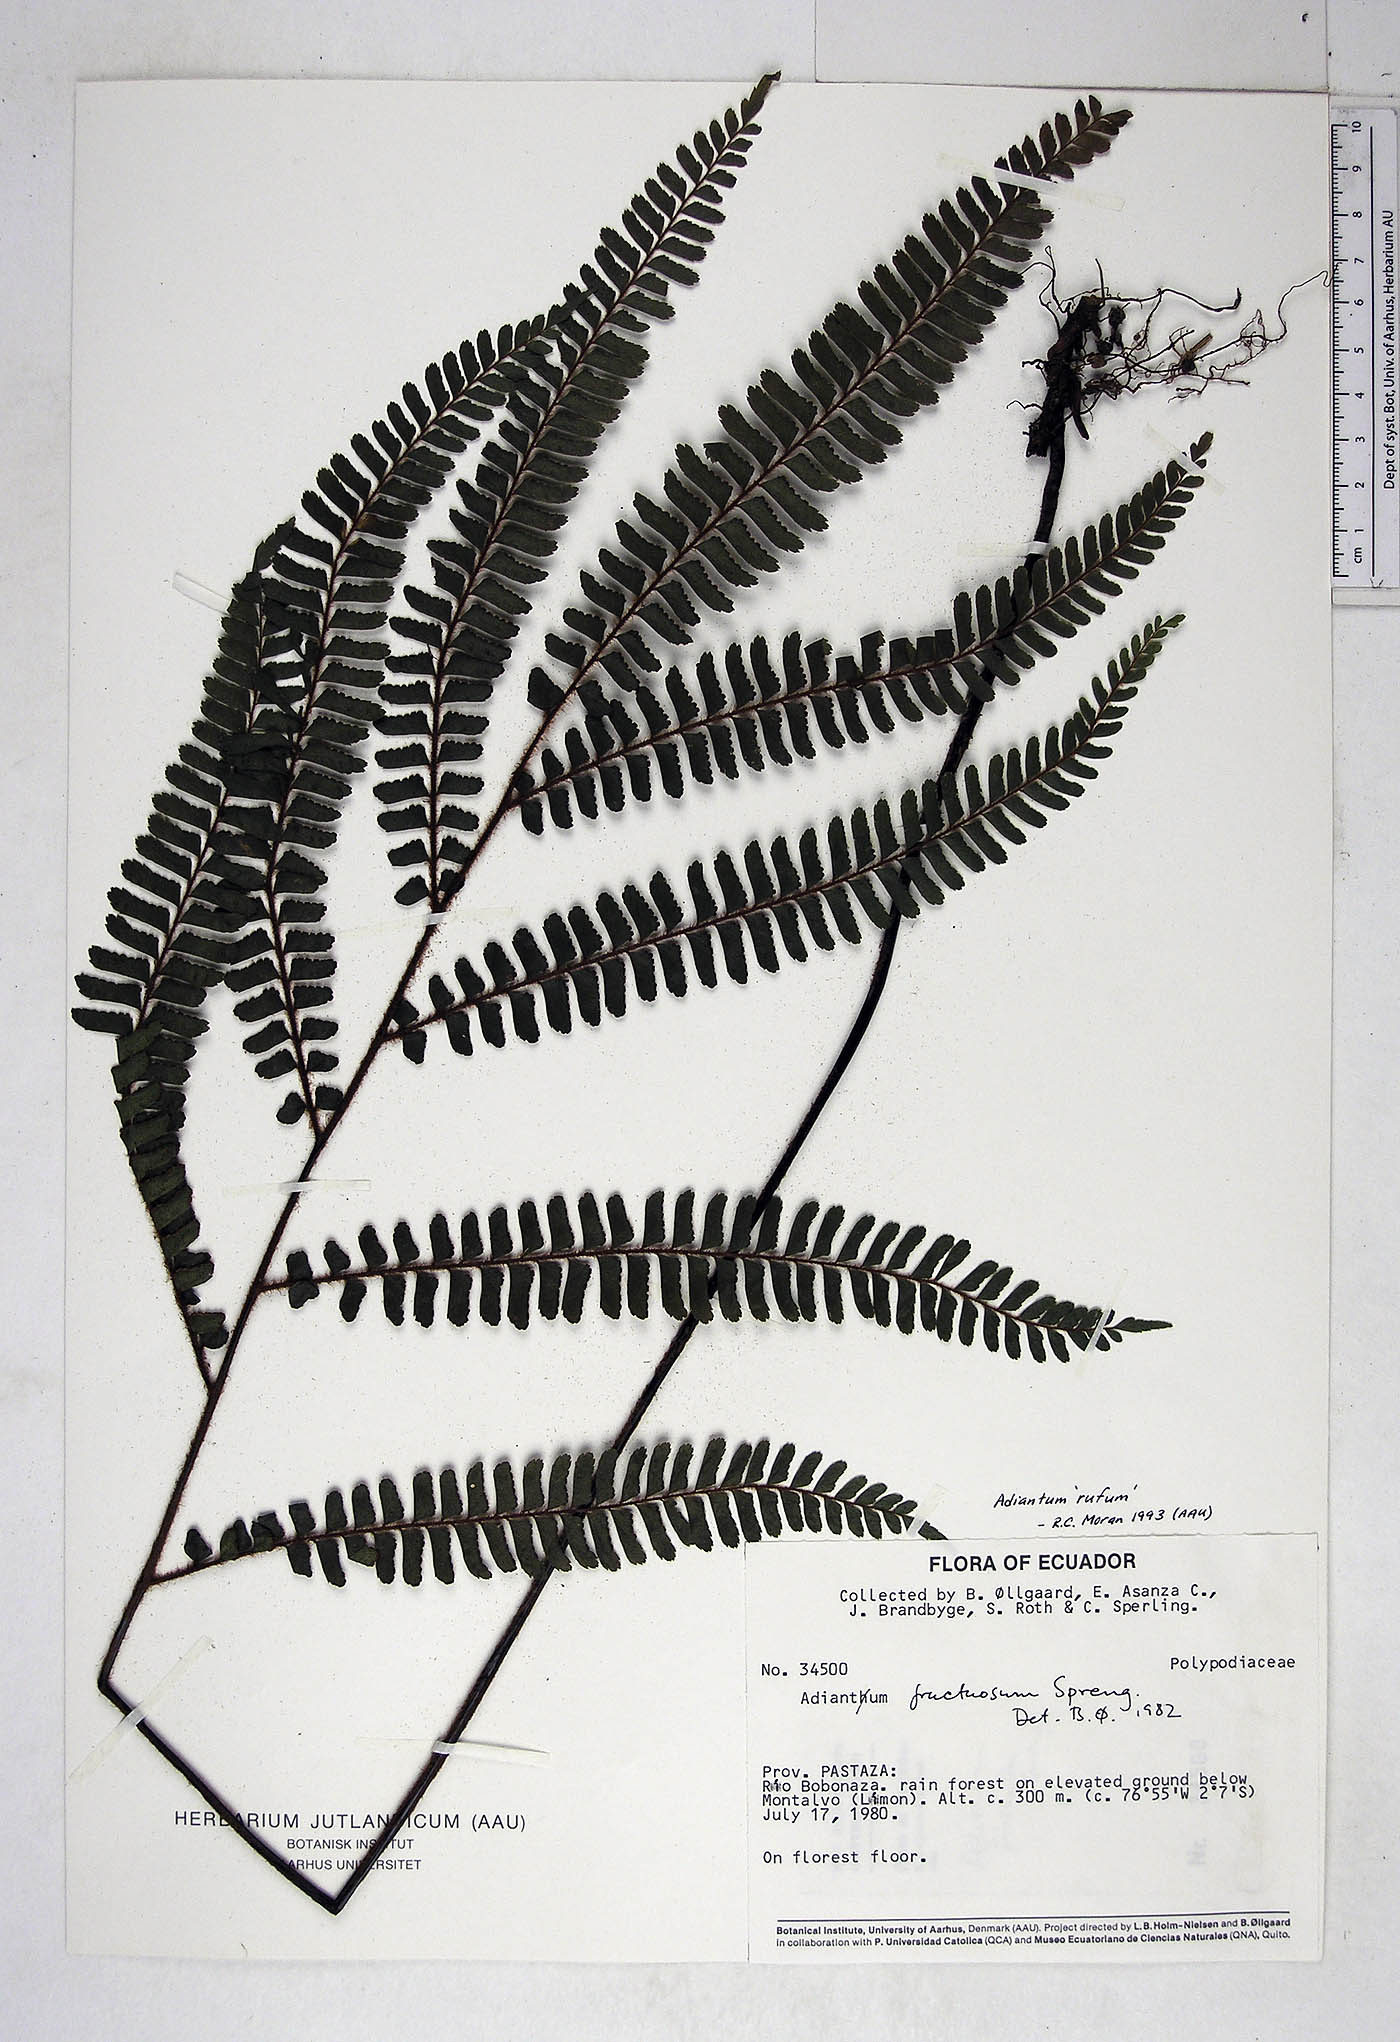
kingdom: Plantae
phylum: Tracheophyta
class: Polypodiopsida
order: Polypodiales
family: Pteridaceae
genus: Adiantum
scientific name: Adiantum tetraphyllum
